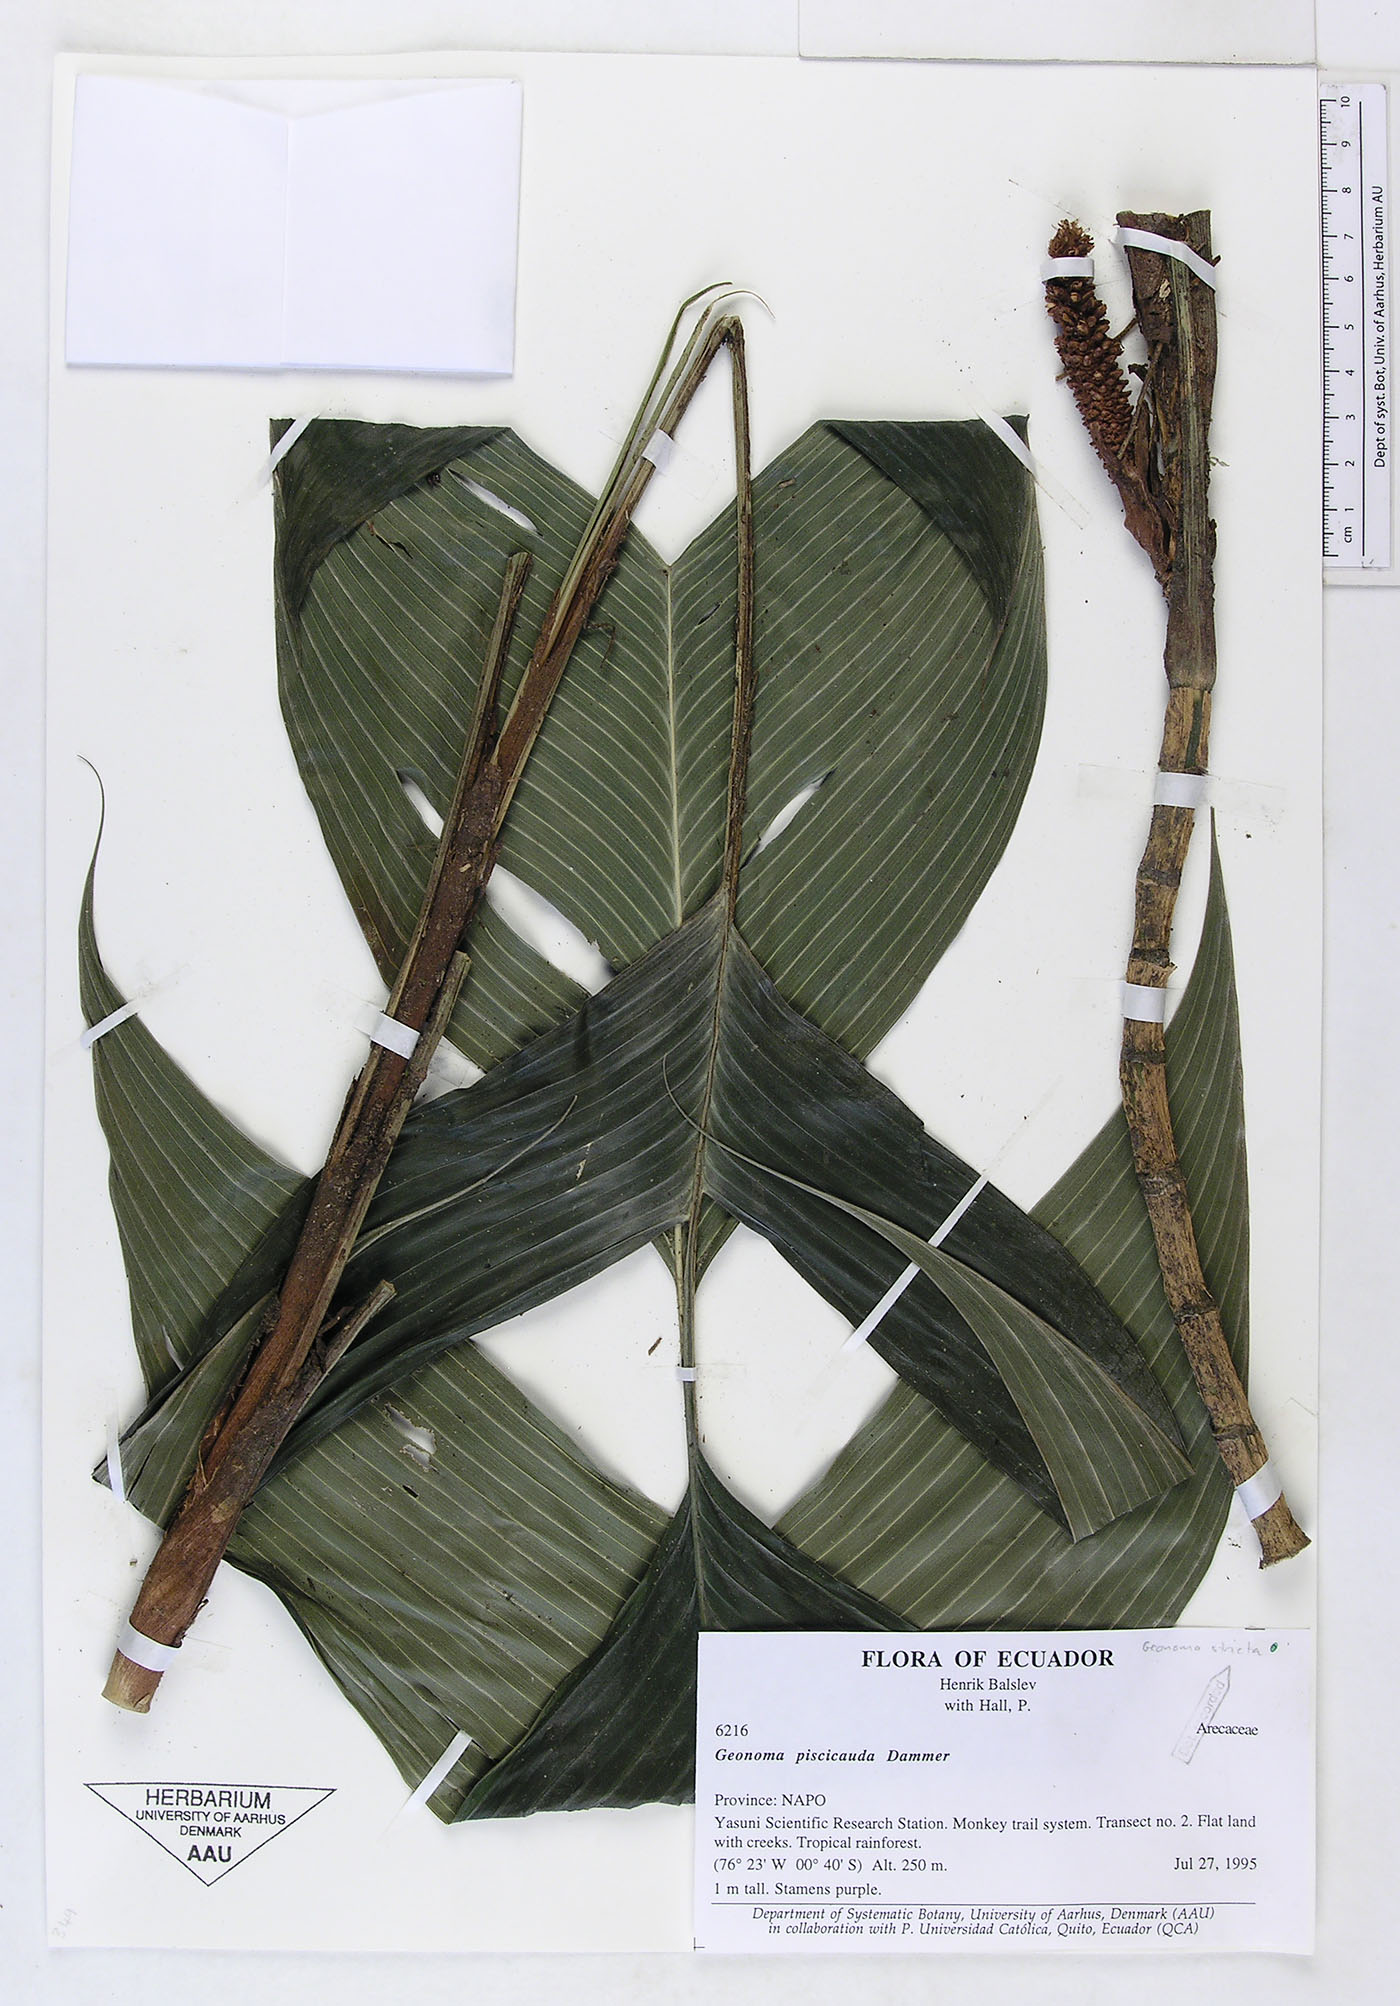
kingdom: Plantae
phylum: Tracheophyta
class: Liliopsida
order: Arecales
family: Arecaceae
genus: Geonoma
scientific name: Geonoma stricta
